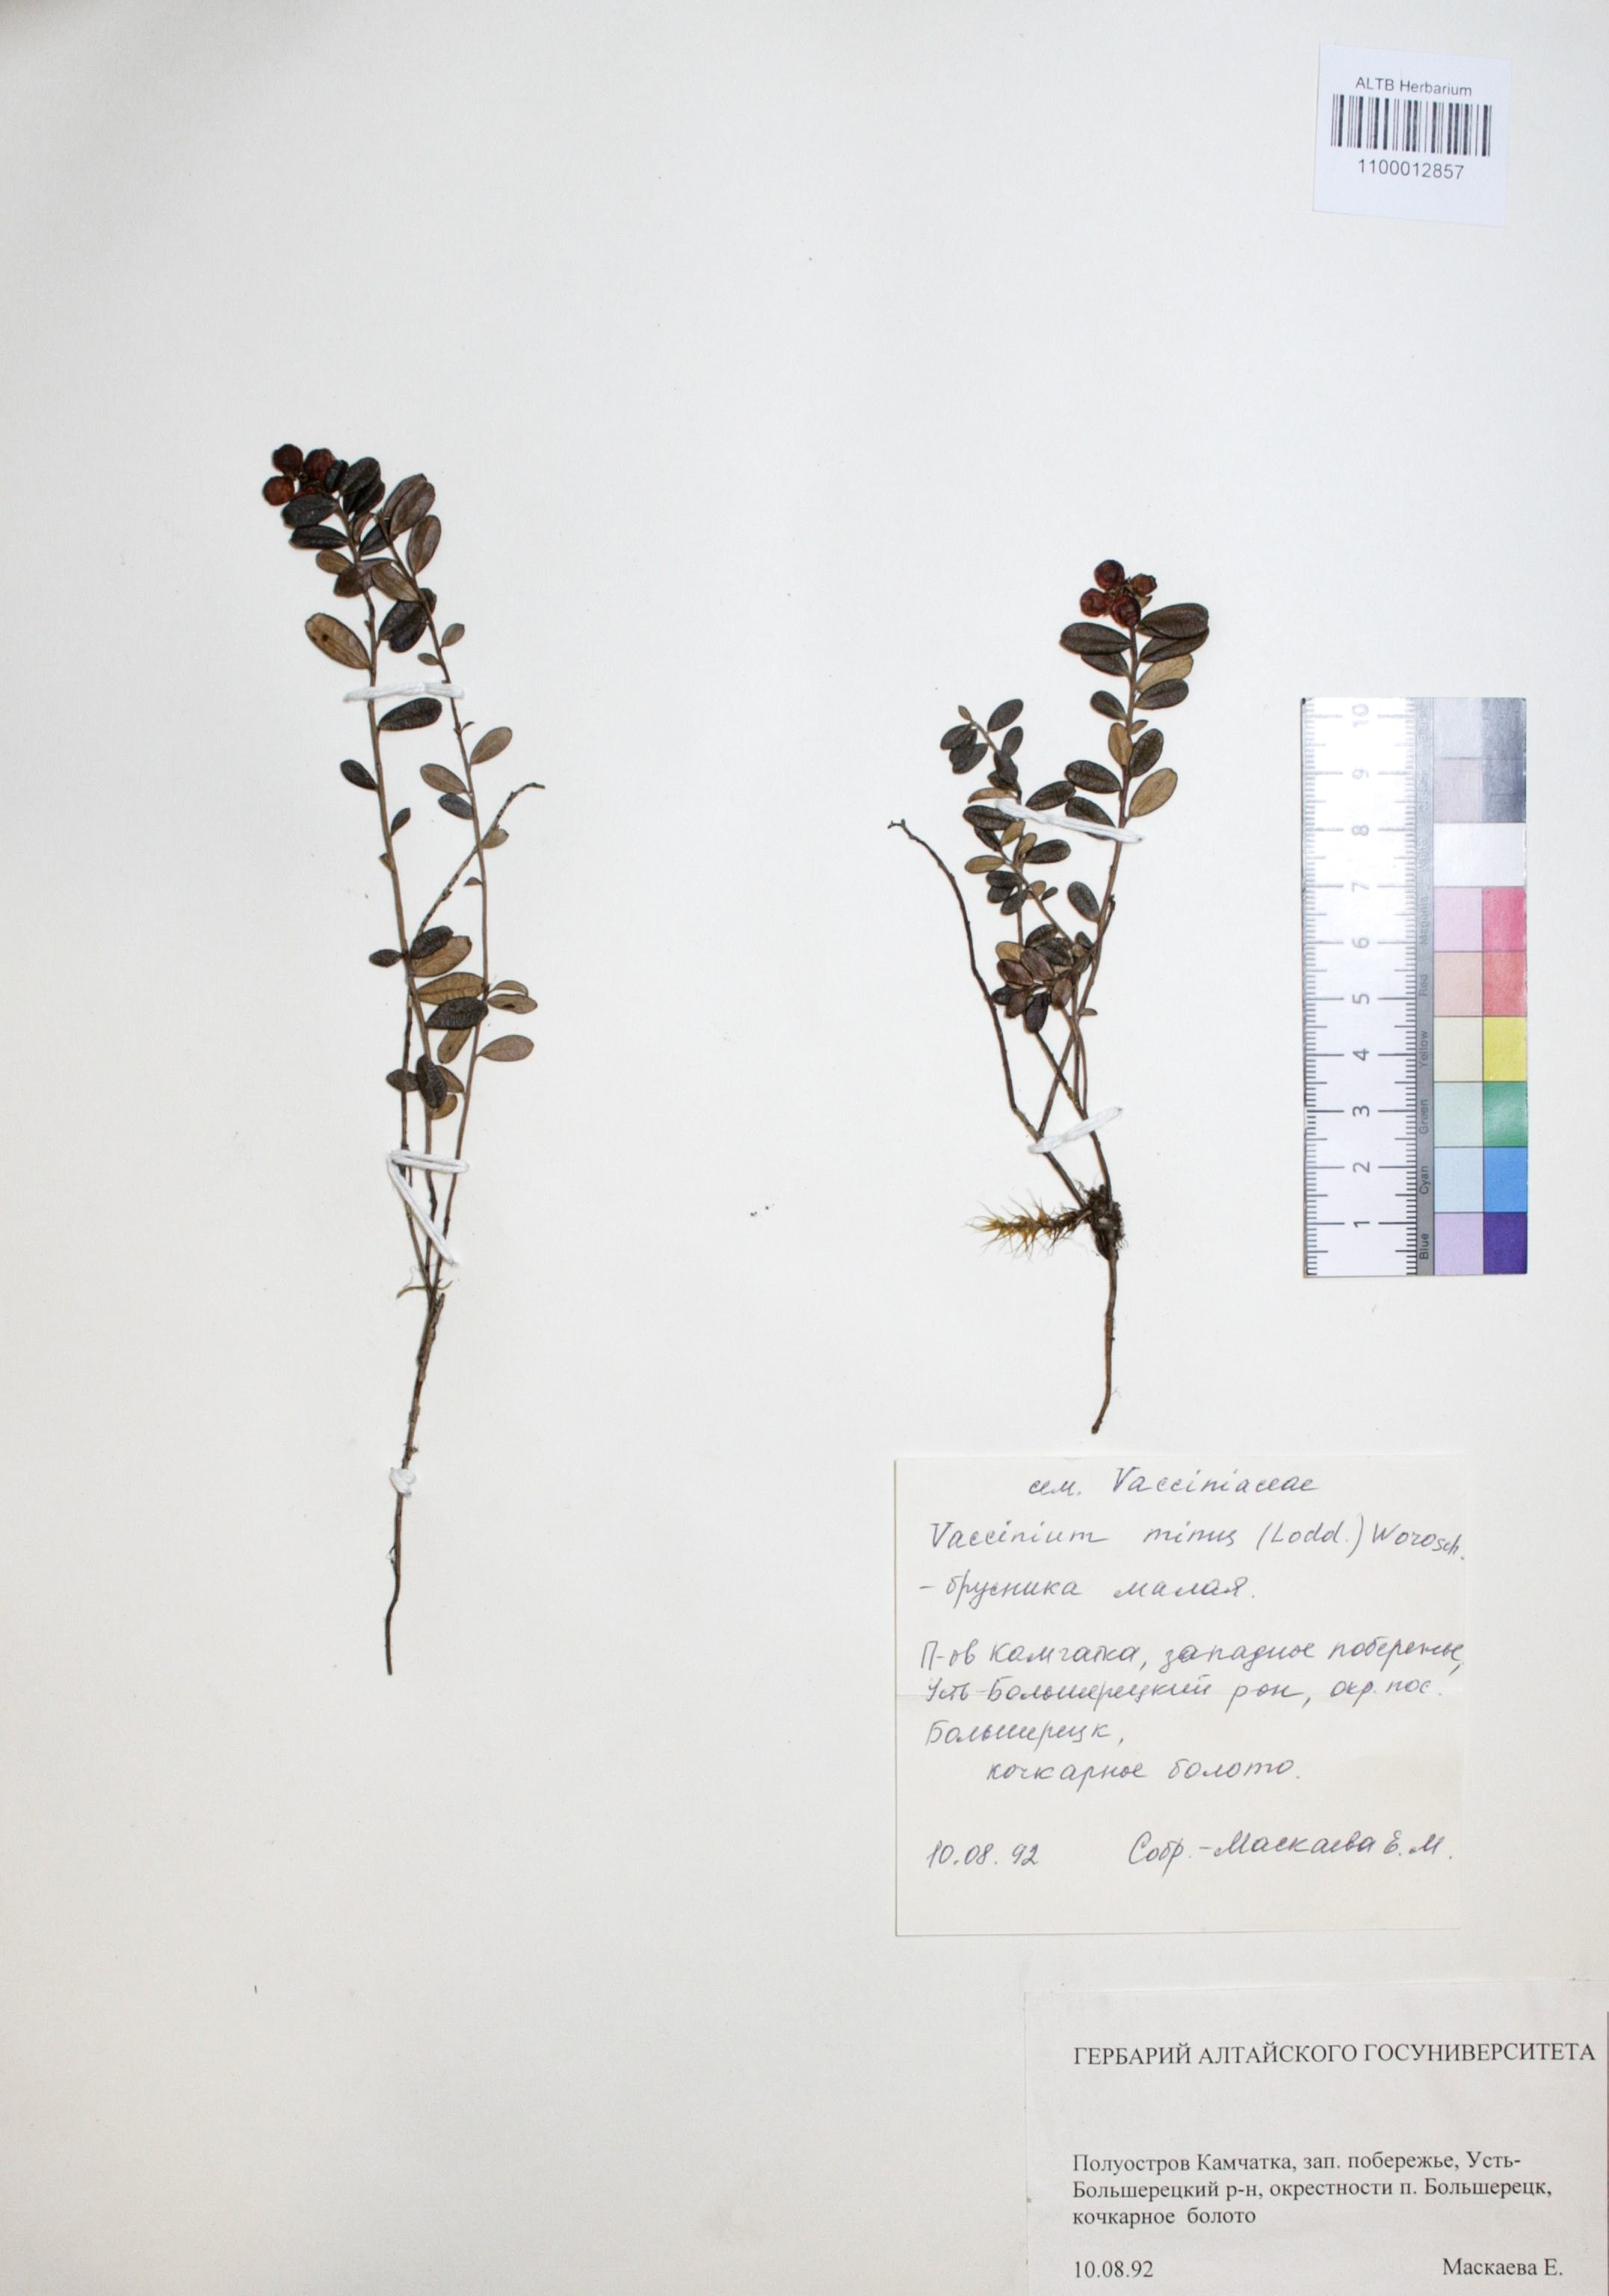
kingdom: Plantae
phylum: Tracheophyta
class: Magnoliopsida
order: Ericales
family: Ericaceae
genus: Vaccinium
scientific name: Vaccinium vitis-idaea
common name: Cowberry
